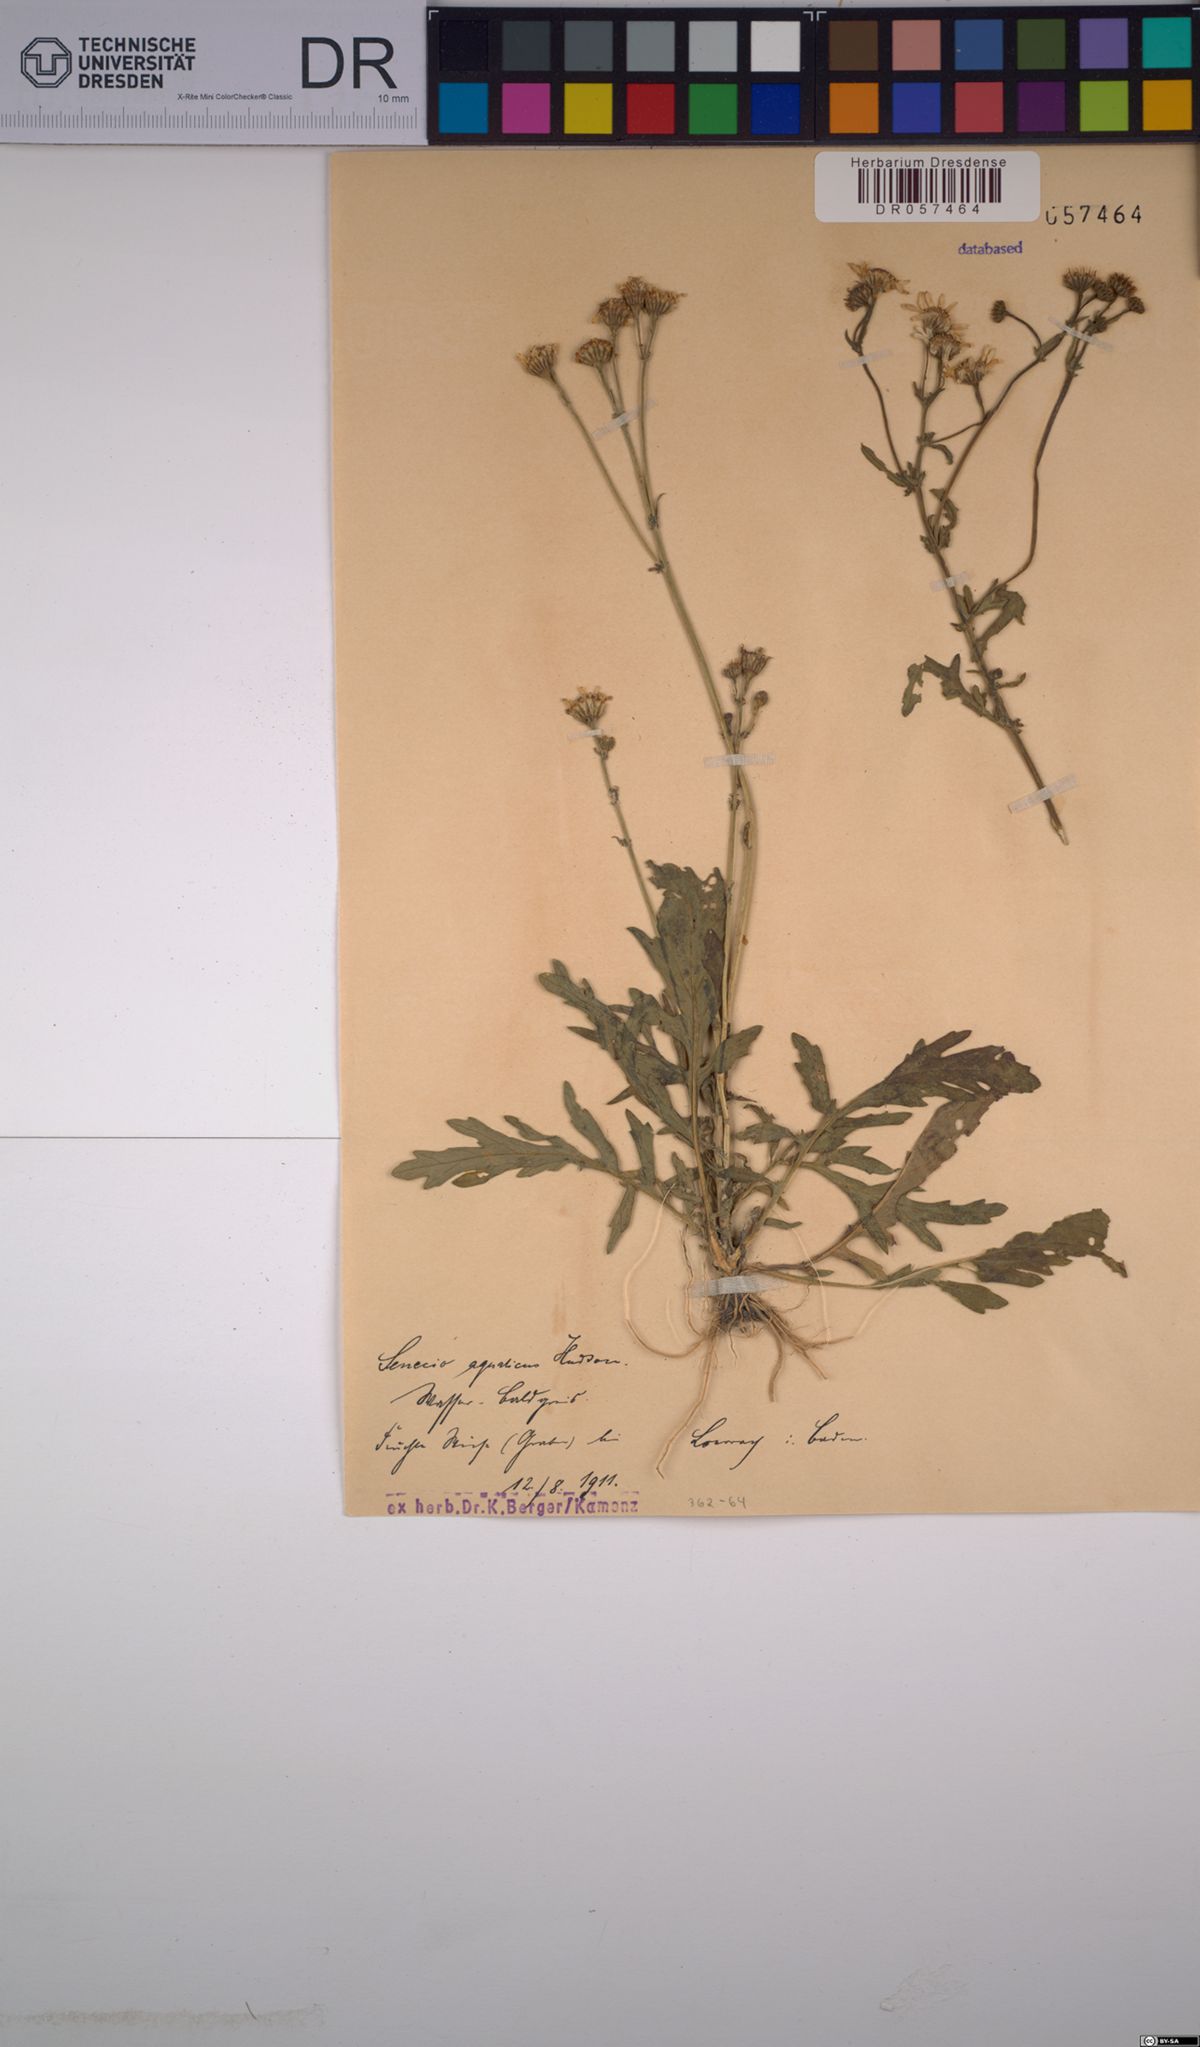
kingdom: Plantae
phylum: Tracheophyta
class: Magnoliopsida
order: Asterales
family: Asteraceae
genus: Jacobaea
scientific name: Jacobaea aquatica
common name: Water ragwort
